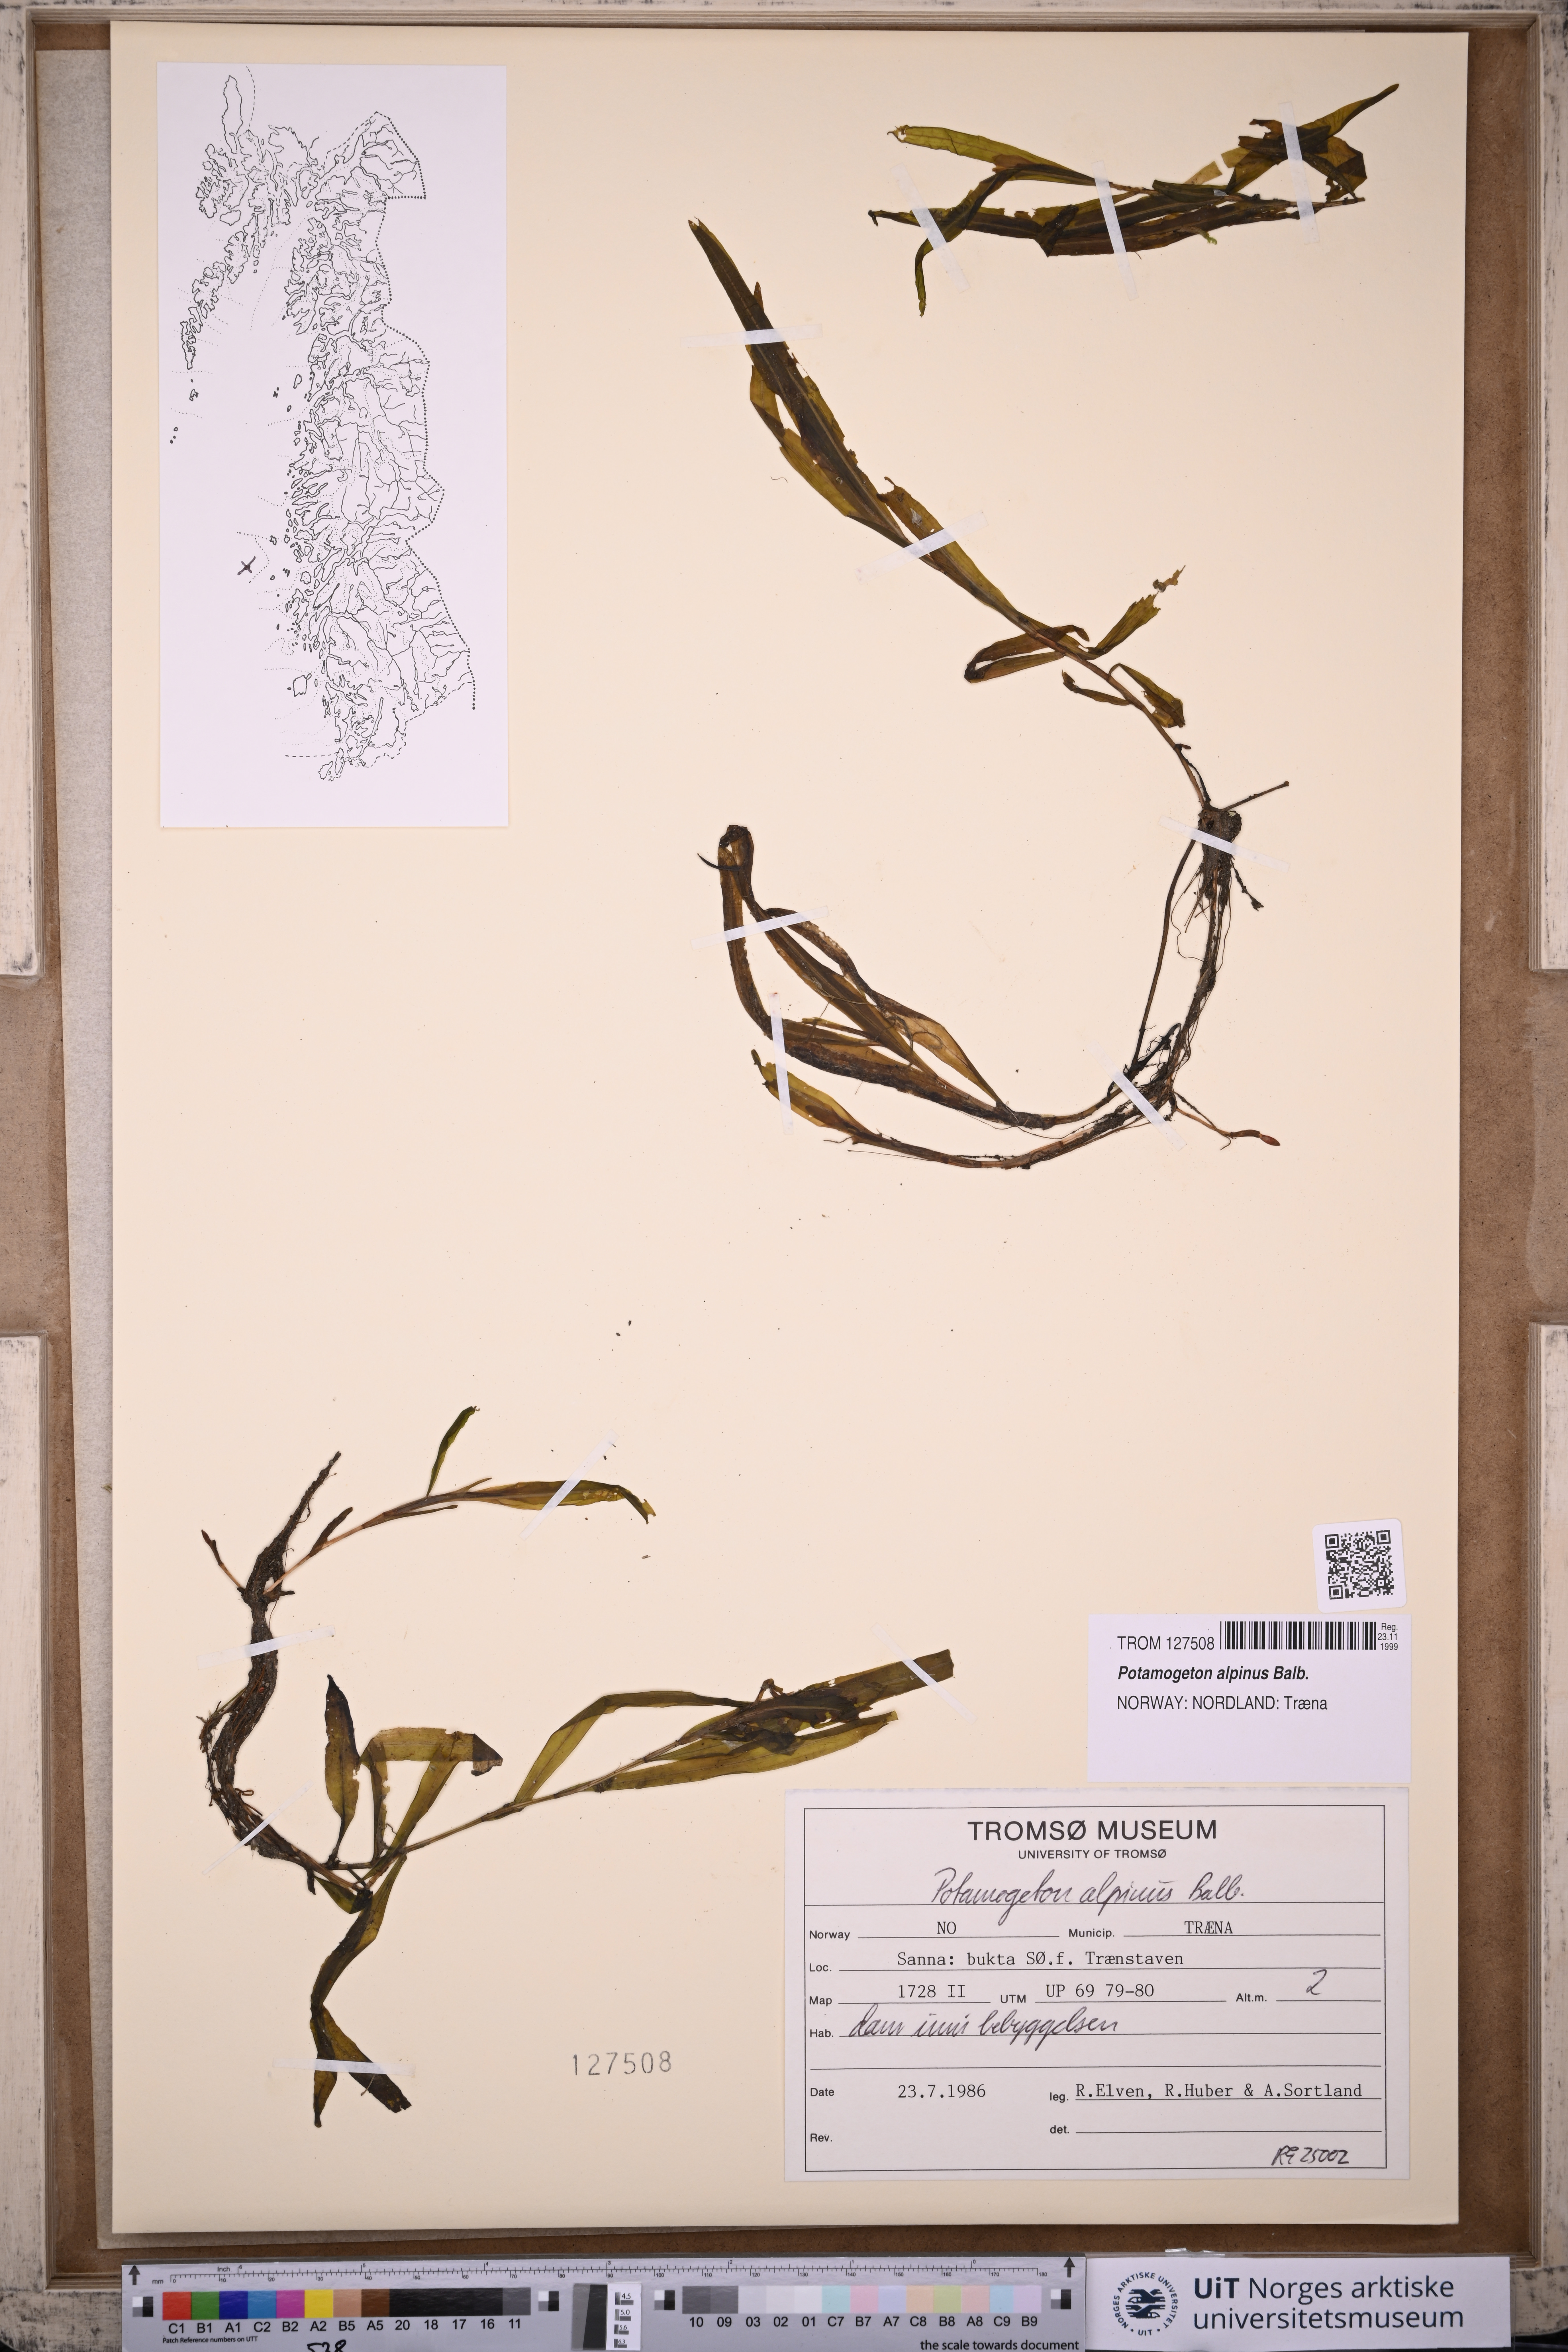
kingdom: Plantae
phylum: Tracheophyta
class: Liliopsida
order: Alismatales
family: Potamogetonaceae
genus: Potamogeton
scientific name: Potamogeton alpinus
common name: Red pondweed
